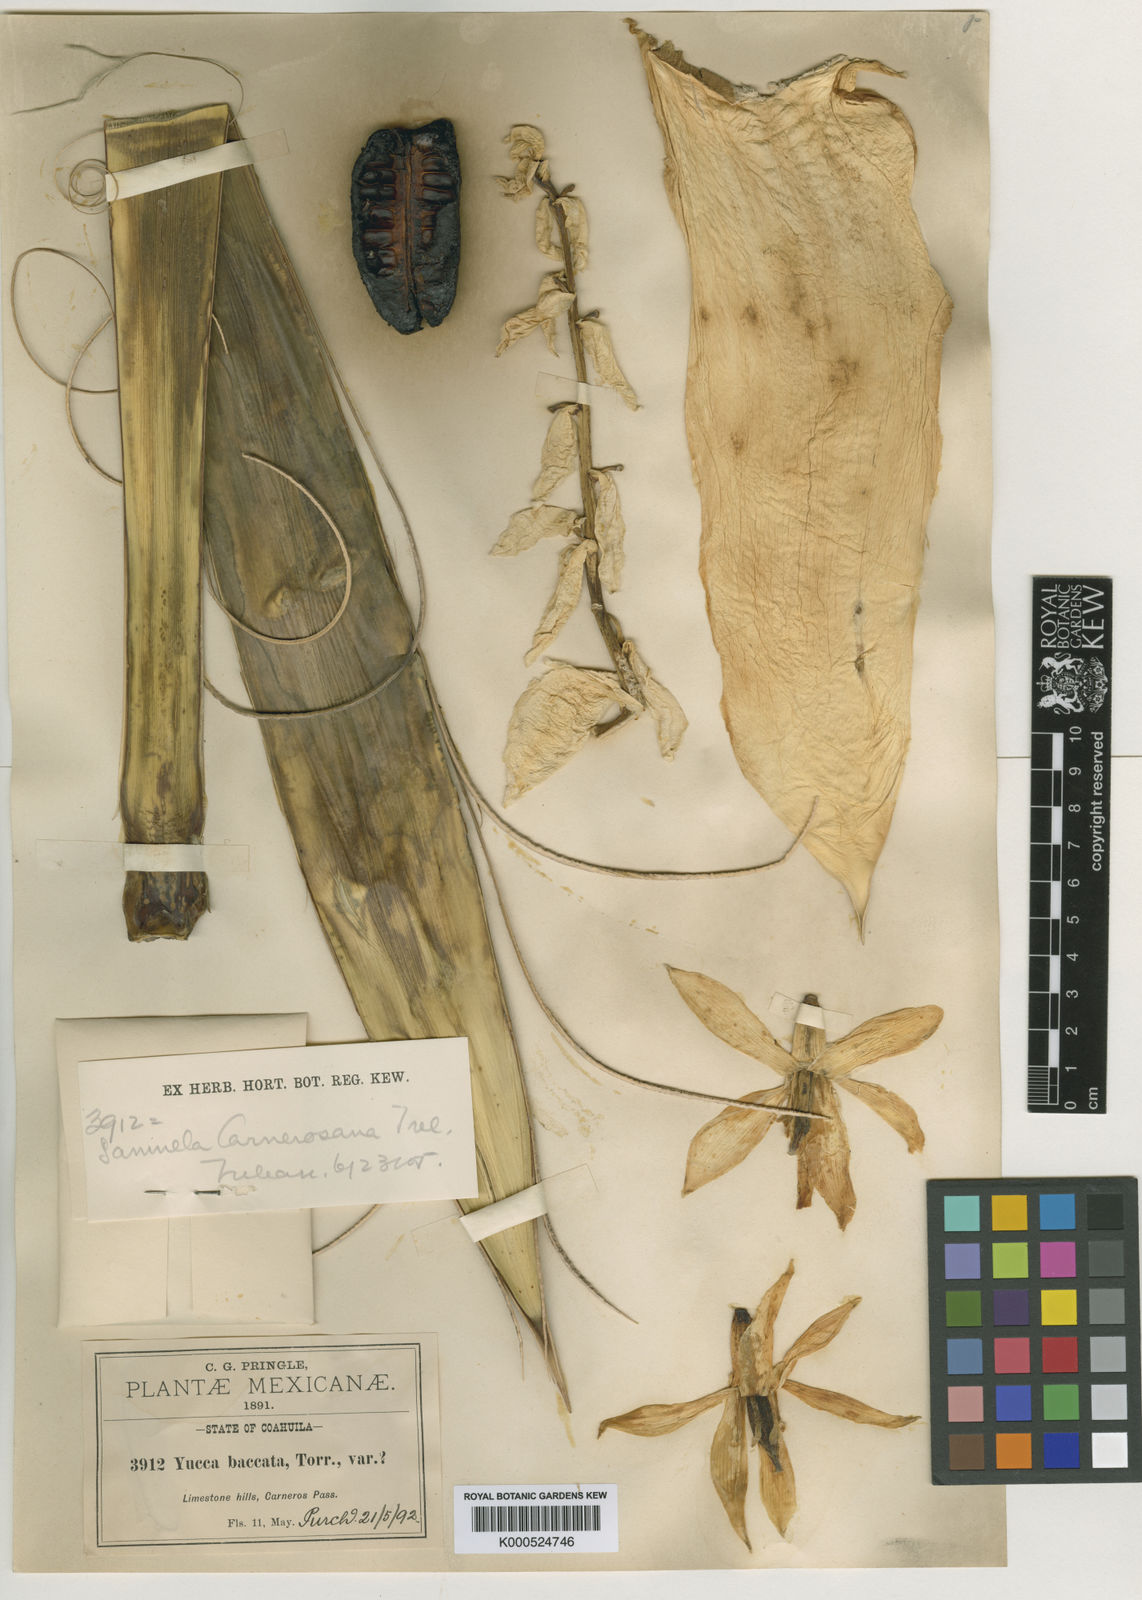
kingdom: Plantae
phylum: Tracheophyta
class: Liliopsida
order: Asparagales
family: Asparagaceae
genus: Yucca
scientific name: Yucca carnerosana
